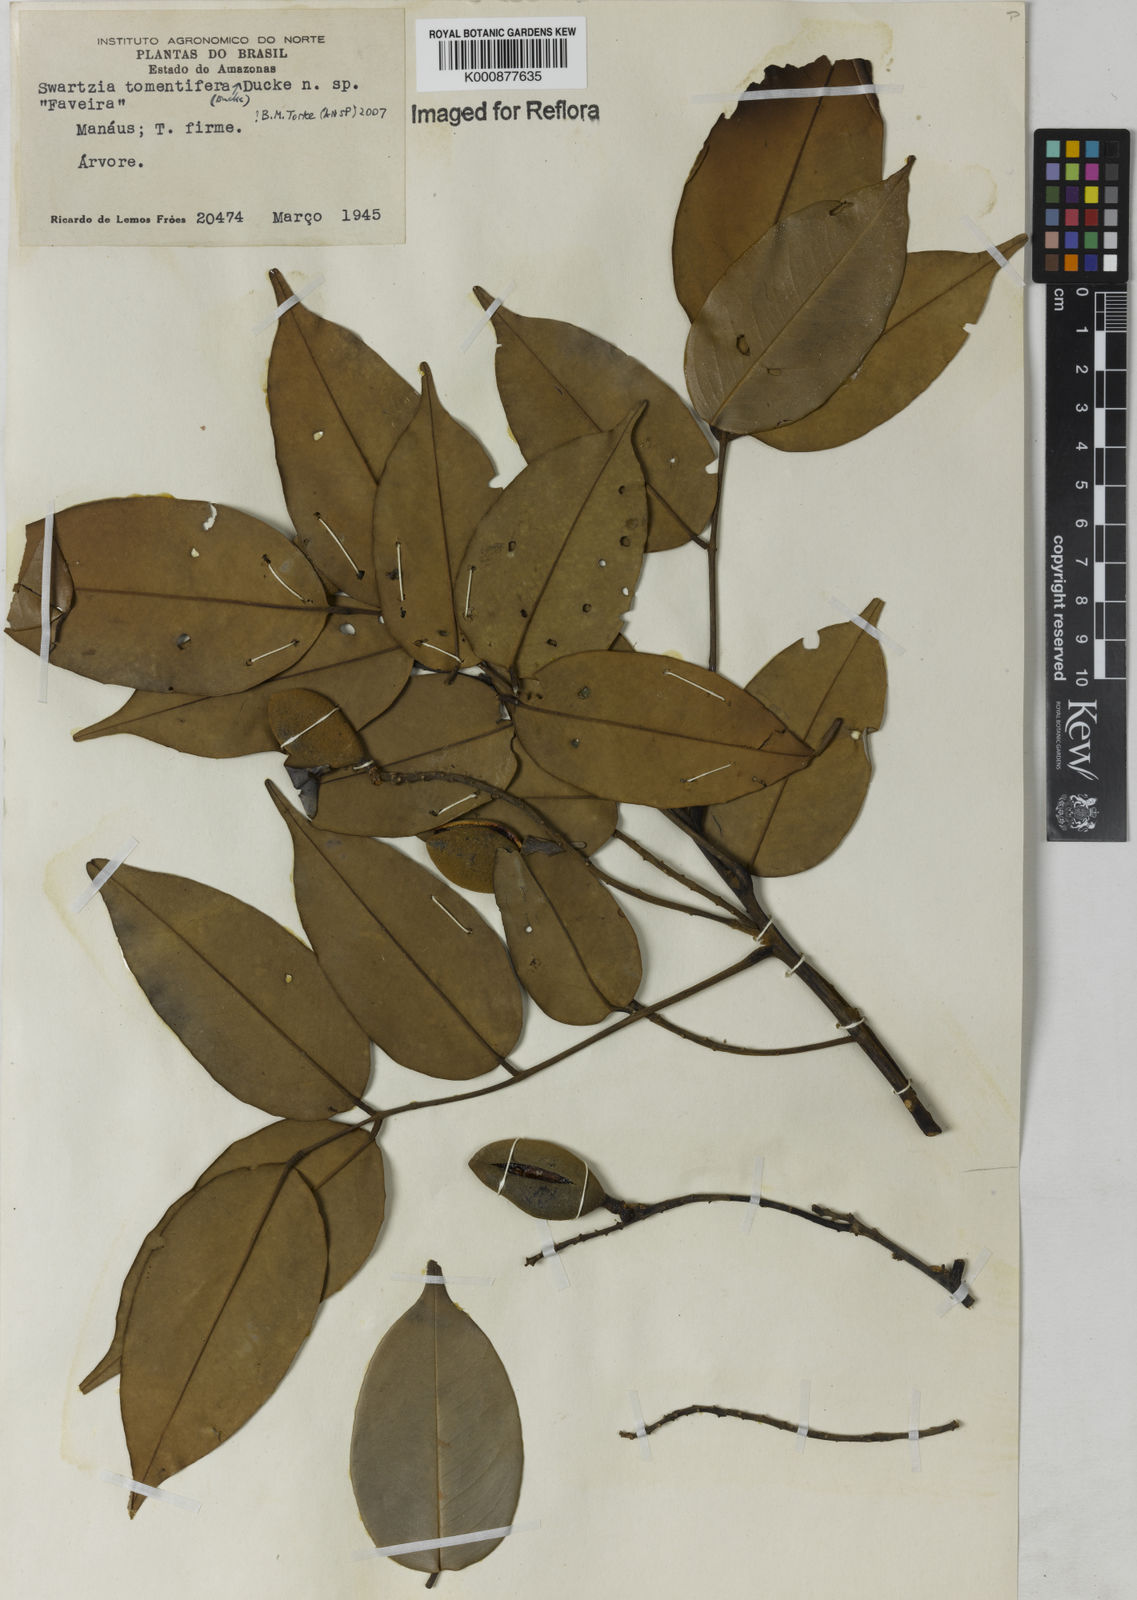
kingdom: Plantae
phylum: Tracheophyta
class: Magnoliopsida
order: Fabales
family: Fabaceae
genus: Swartzia
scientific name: Swartzia tomentifera
